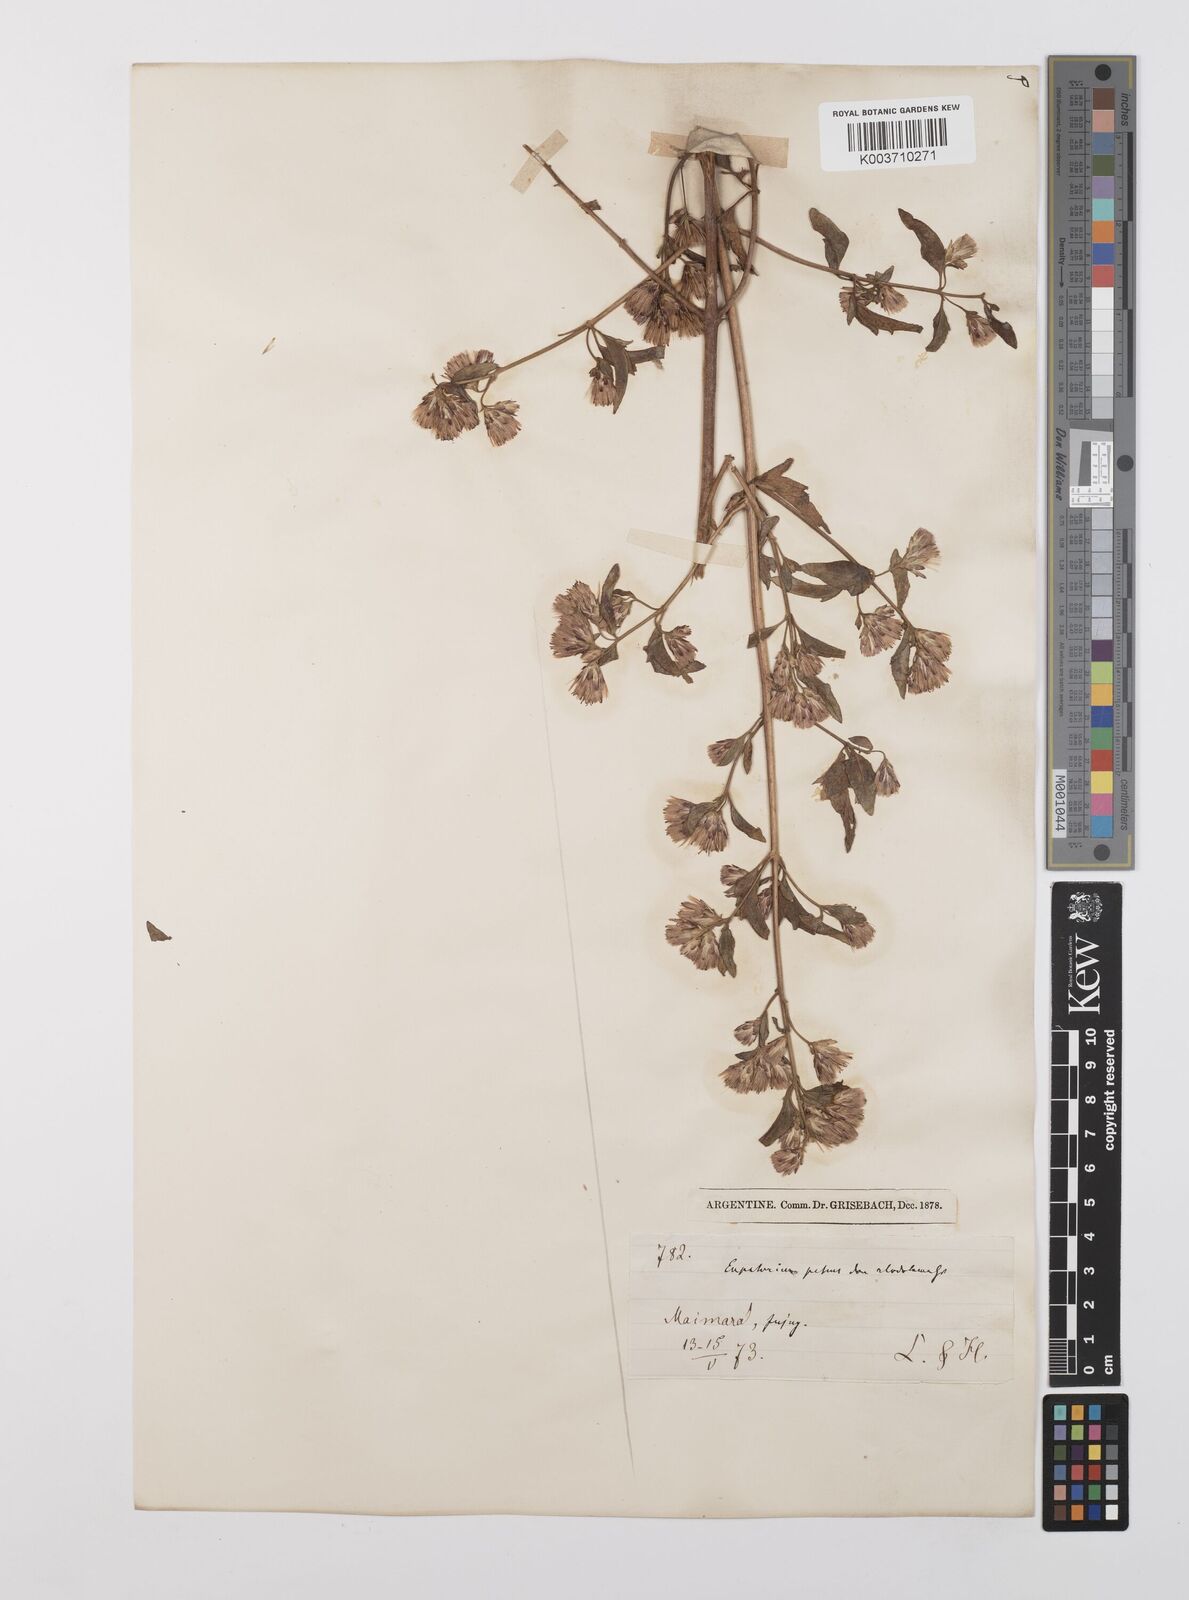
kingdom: Plantae
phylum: Tracheophyta
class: Magnoliopsida
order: Asterales
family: Asteraceae
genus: Austrobrickellia
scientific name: Austrobrickellia patens
